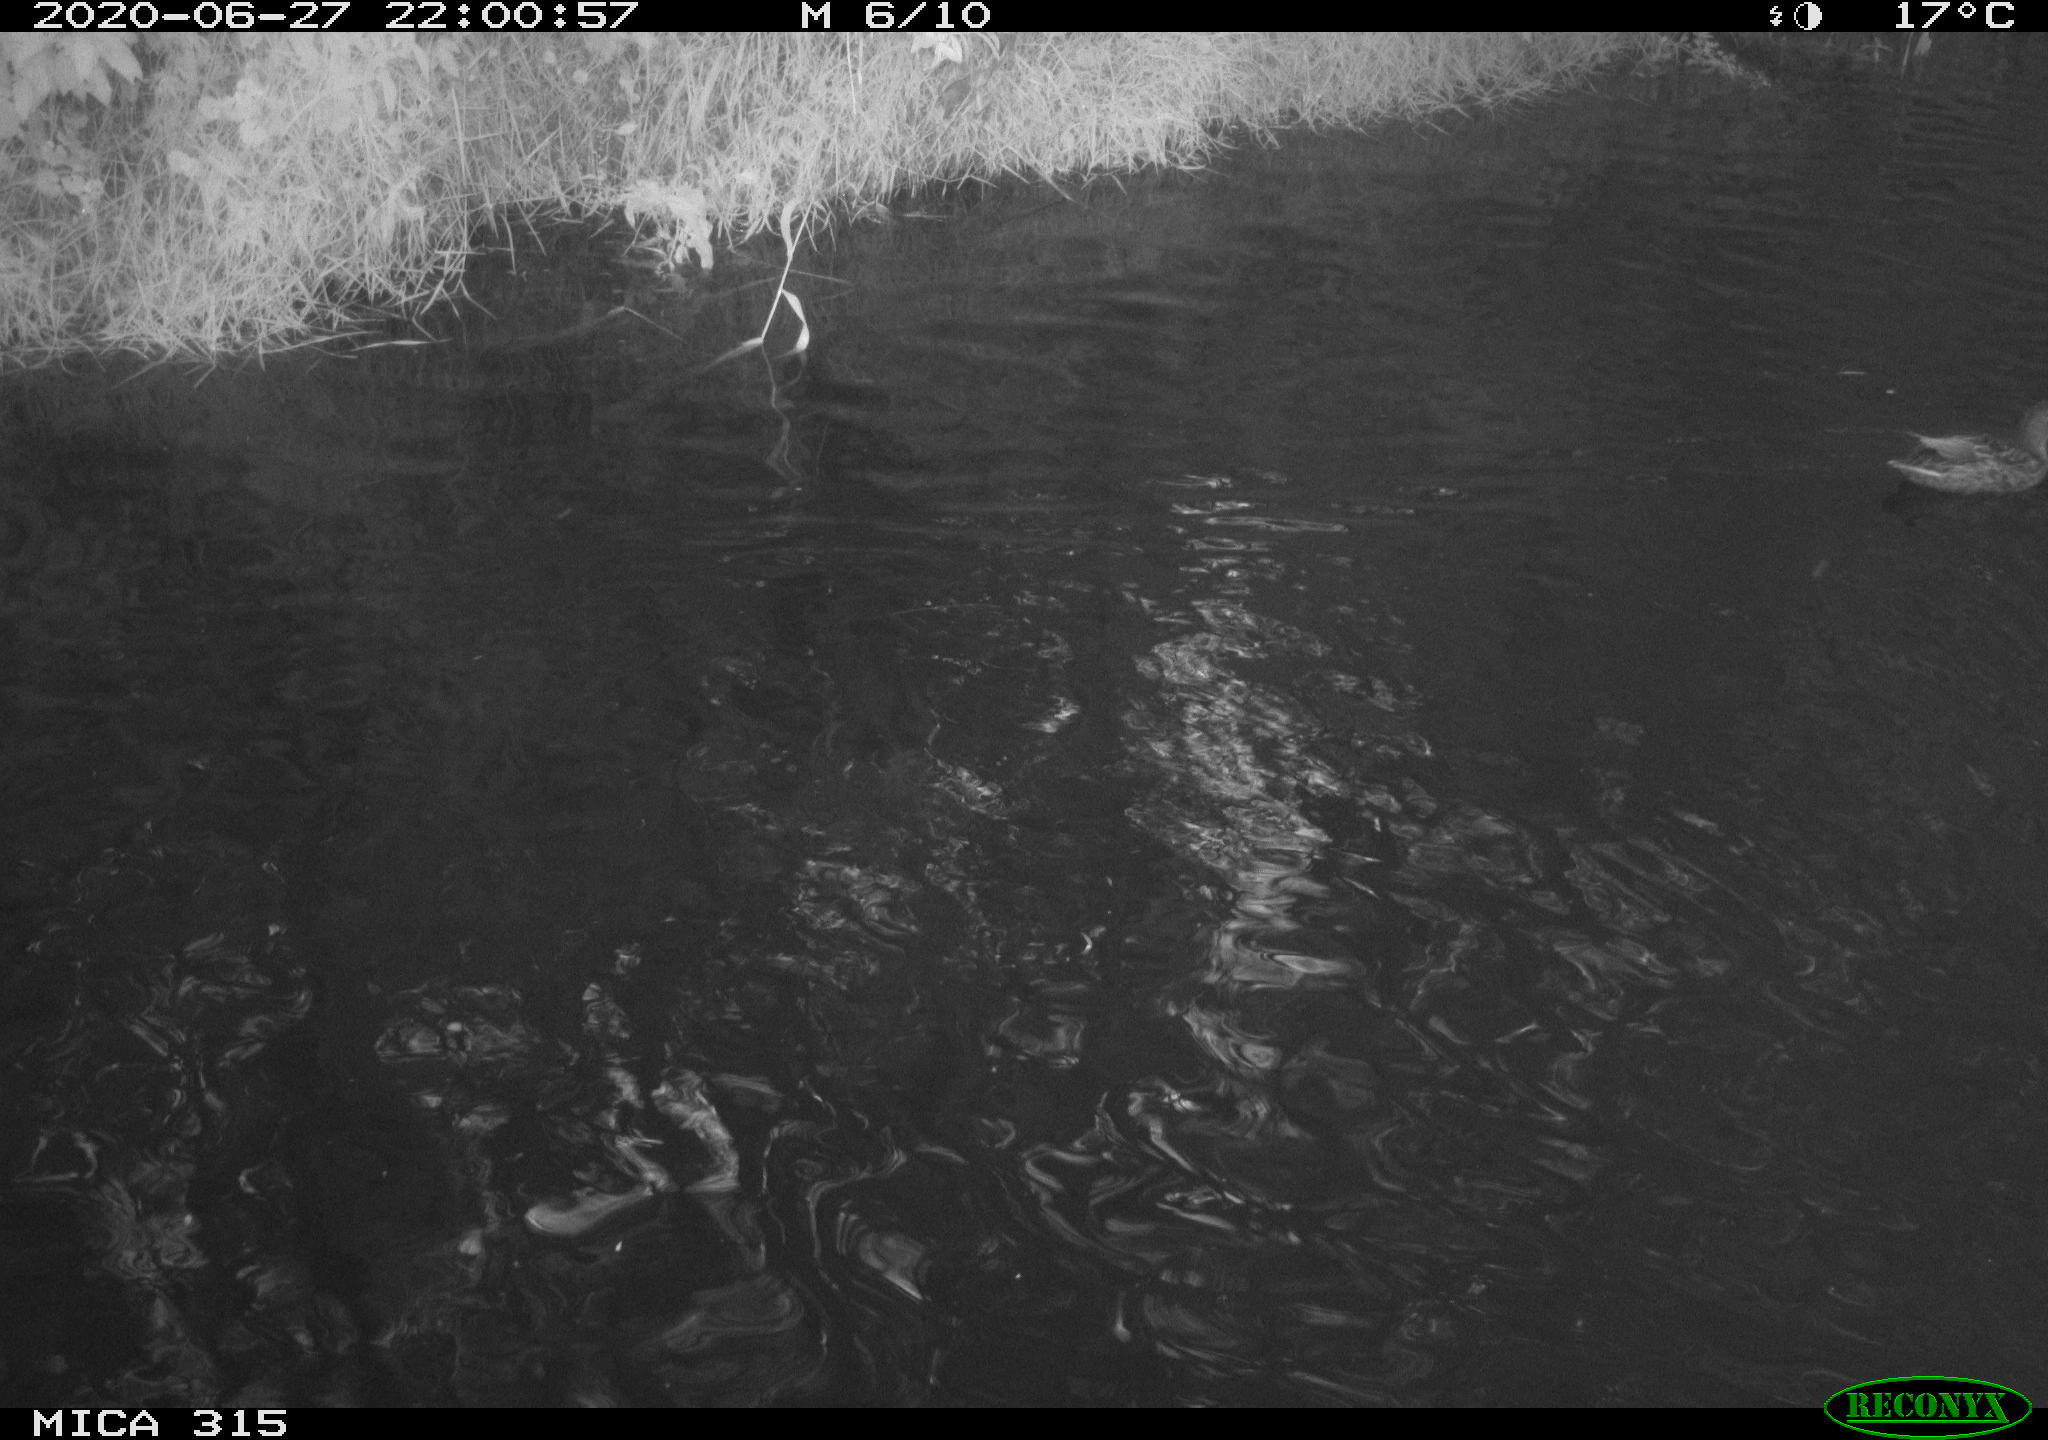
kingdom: Animalia
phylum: Chordata
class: Aves
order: Anseriformes
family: Anatidae
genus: Anas
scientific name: Anas platyrhynchos
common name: Mallard
